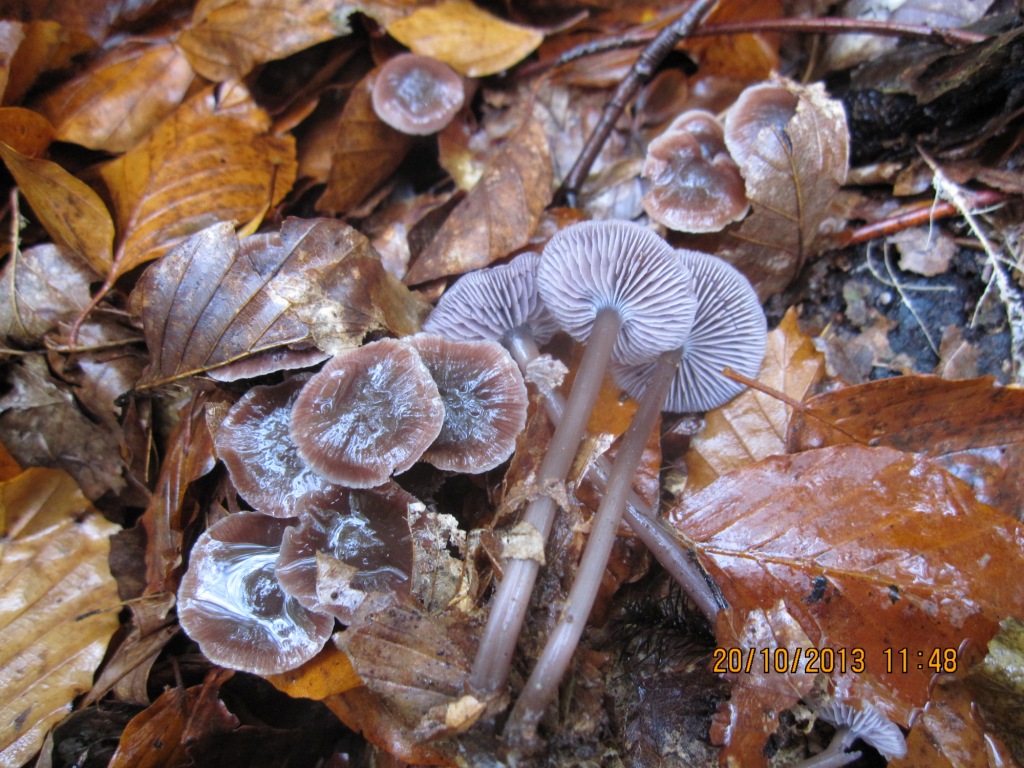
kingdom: Fungi
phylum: Basidiomycota
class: Agaricomycetes
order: Agaricales
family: Mycenaceae
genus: Prunulus
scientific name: Prunulus diosmus
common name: tobaks-huesvamp
